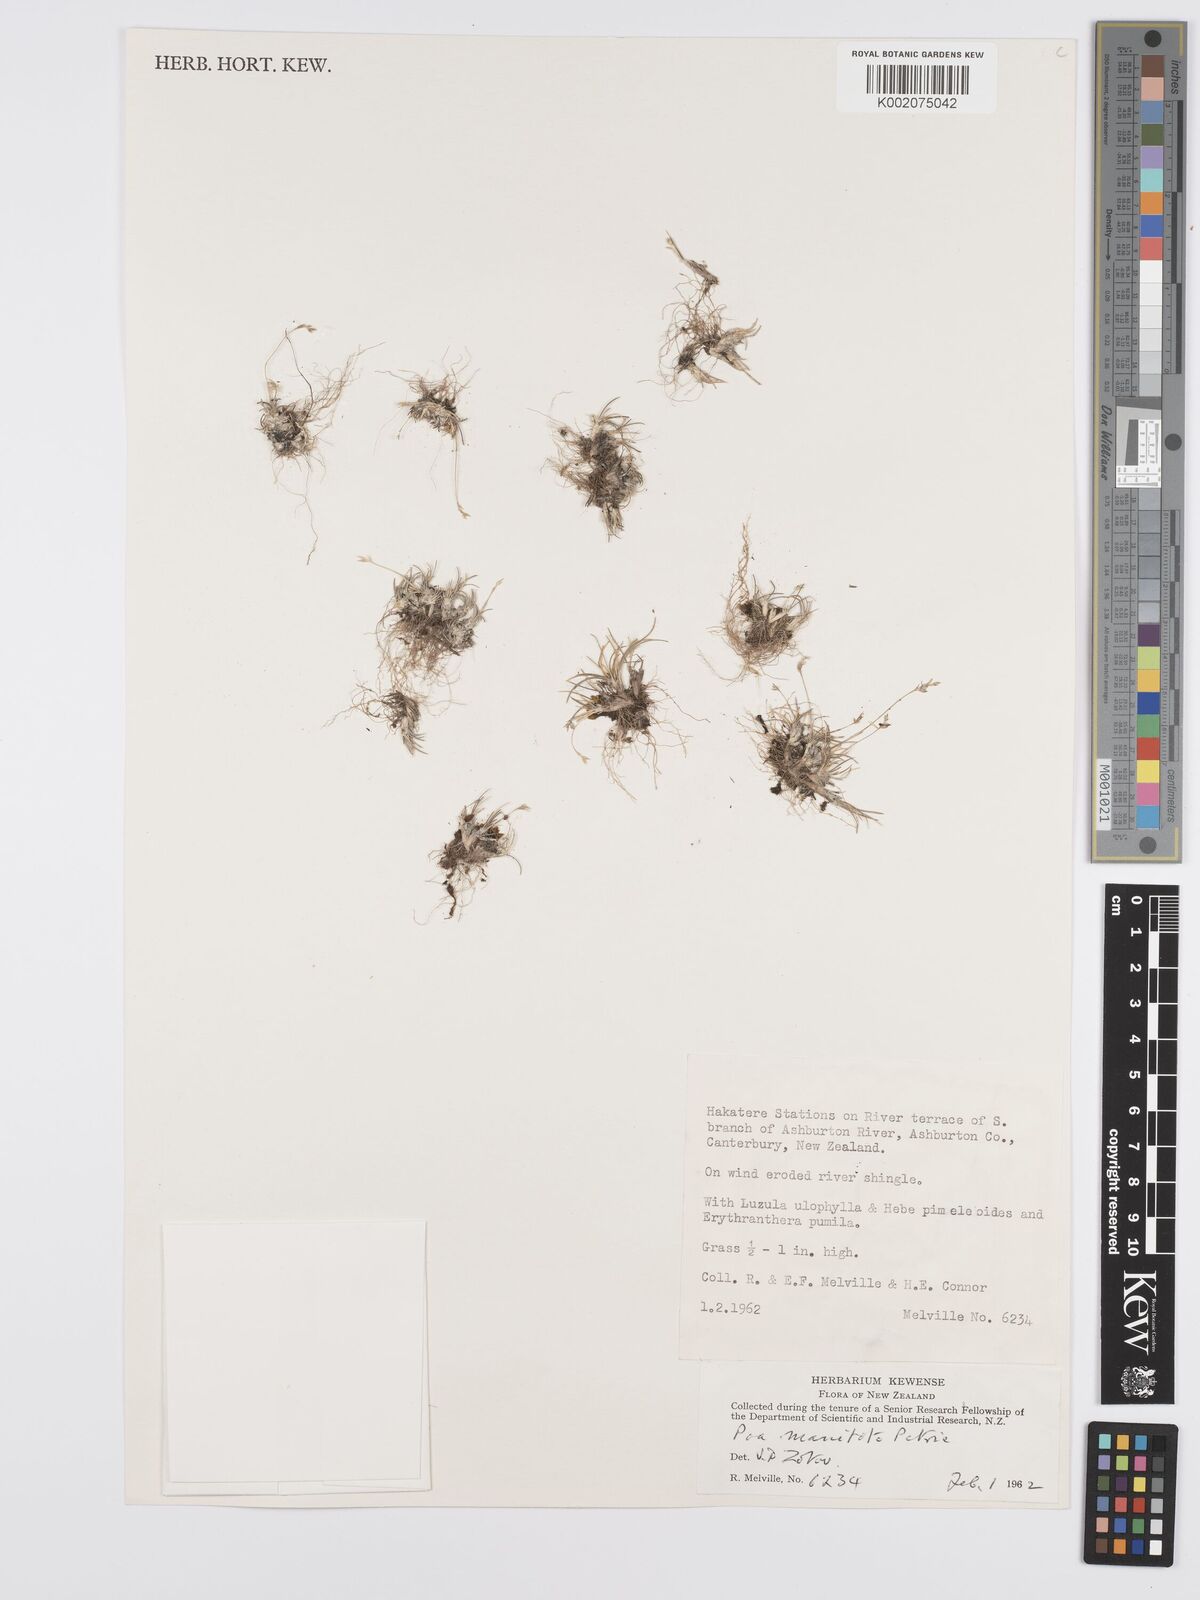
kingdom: Plantae
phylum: Tracheophyta
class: Liliopsida
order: Poales
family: Poaceae
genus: Poa
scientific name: Poa maniototo
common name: Desert poa
